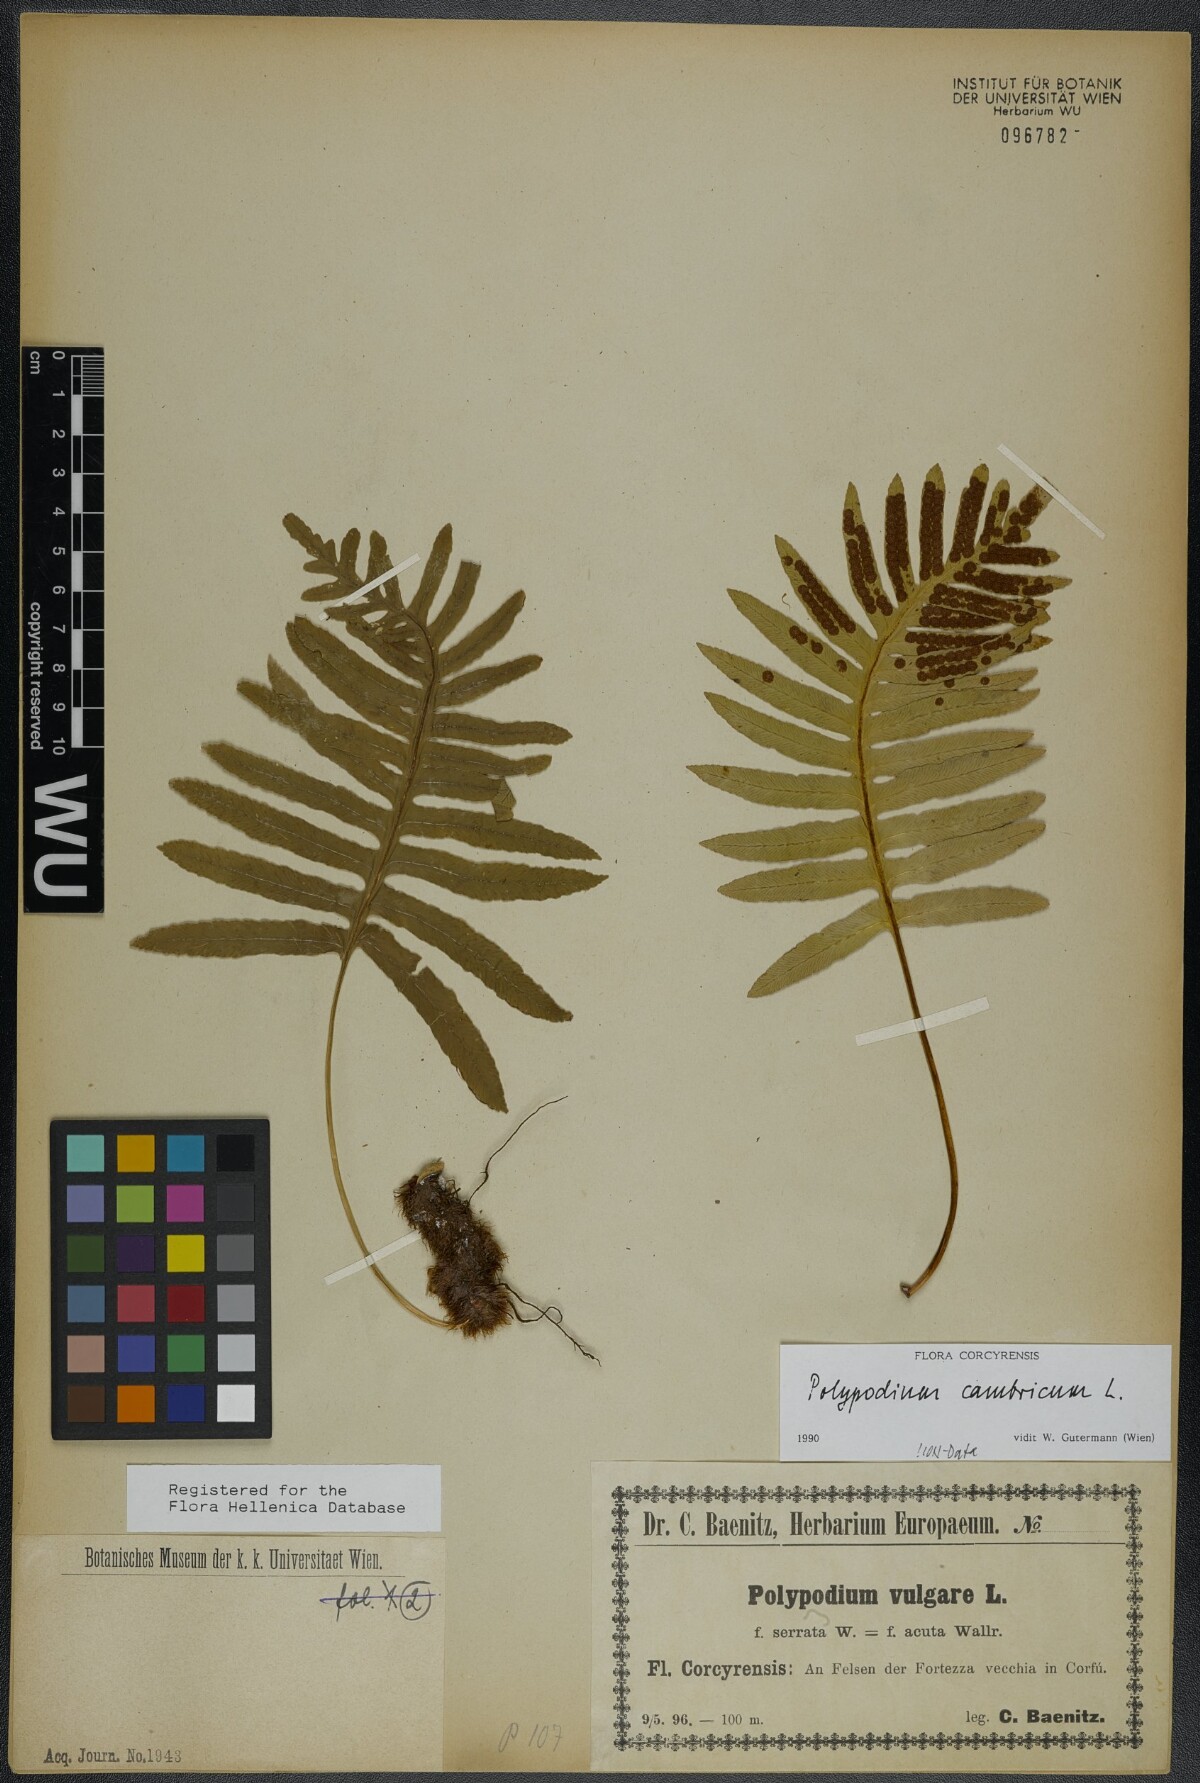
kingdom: Plantae
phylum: Tracheophyta
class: Polypodiopsida
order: Polypodiales
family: Polypodiaceae
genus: Polypodium
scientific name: Polypodium cambricum
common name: Southern polypody
